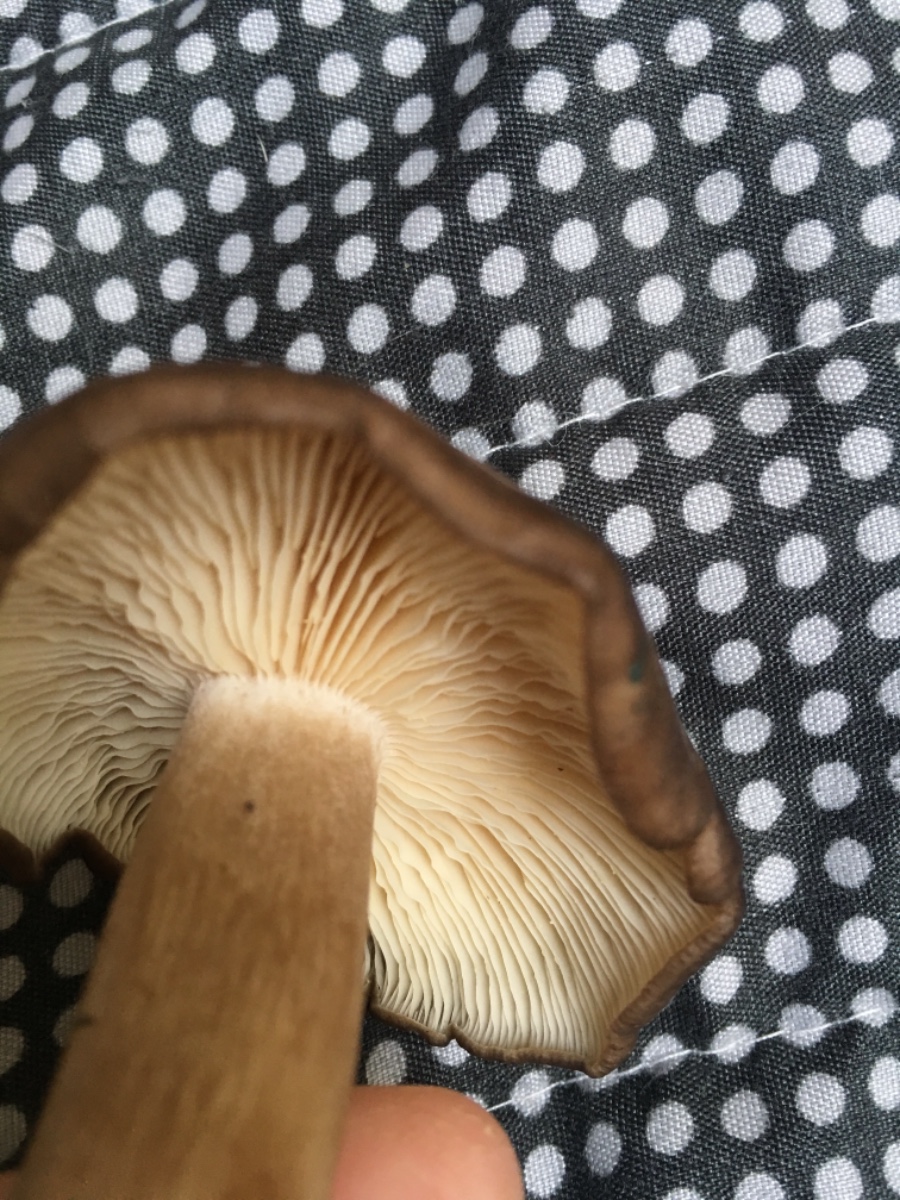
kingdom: Fungi
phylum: Basidiomycota
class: Agaricomycetes
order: Agaricales
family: Lyophyllaceae
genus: Lyophyllum
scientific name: Lyophyllum decastes
